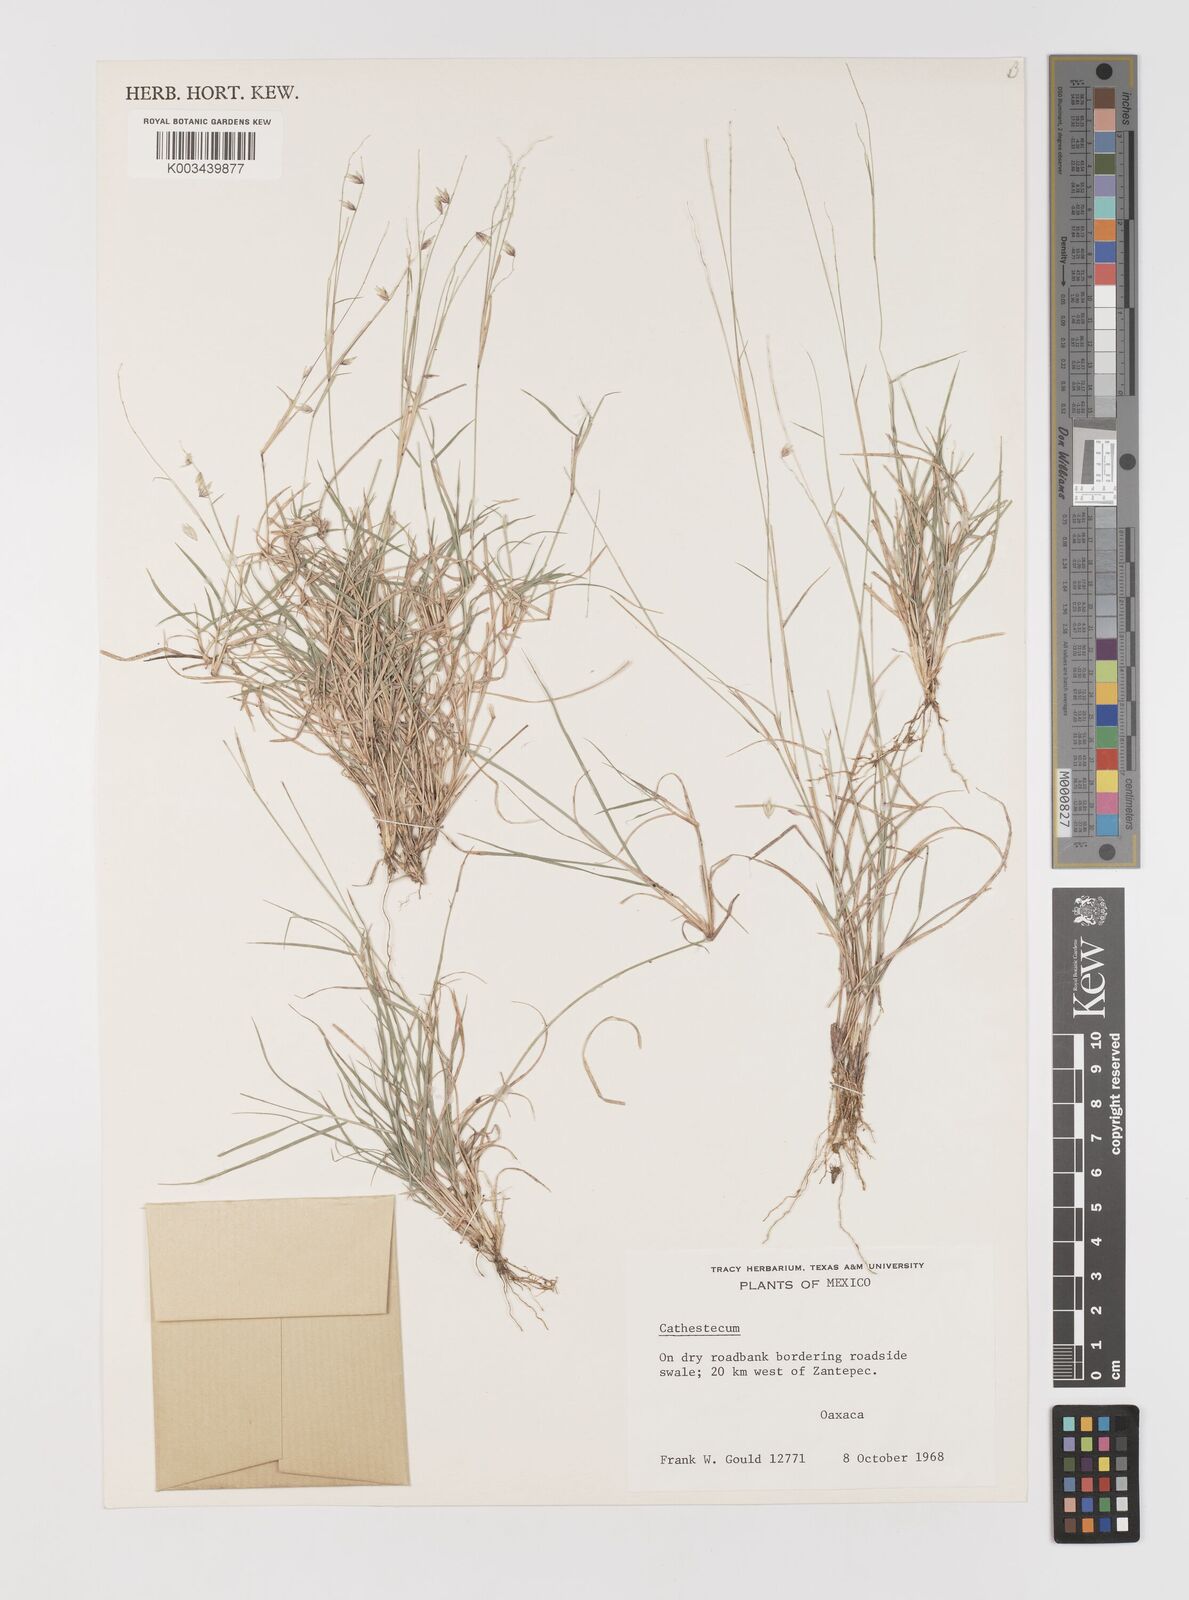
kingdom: Plantae
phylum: Tracheophyta
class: Liliopsida
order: Poales
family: Poaceae
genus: Bouteloua
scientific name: Bouteloua
